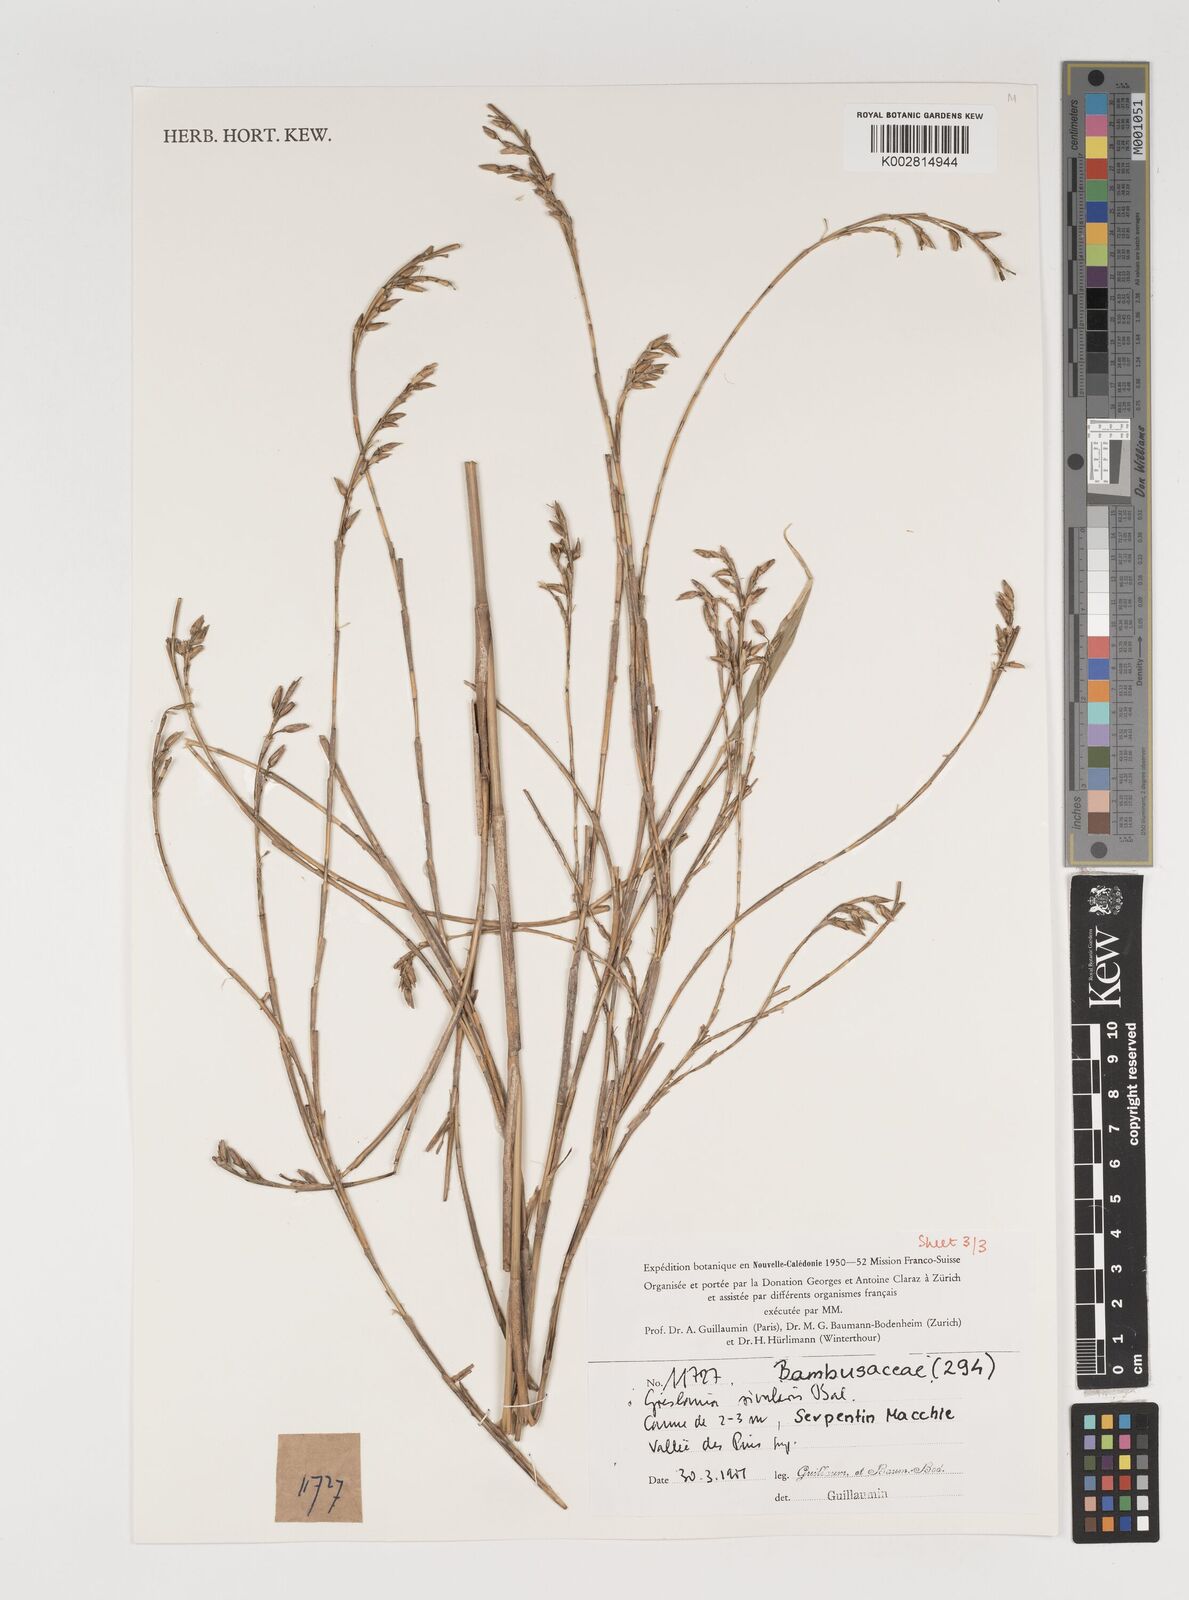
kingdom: Plantae
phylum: Tracheophyta
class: Liliopsida
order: Poales
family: Poaceae
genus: Greslania
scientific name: Greslania rivularis
